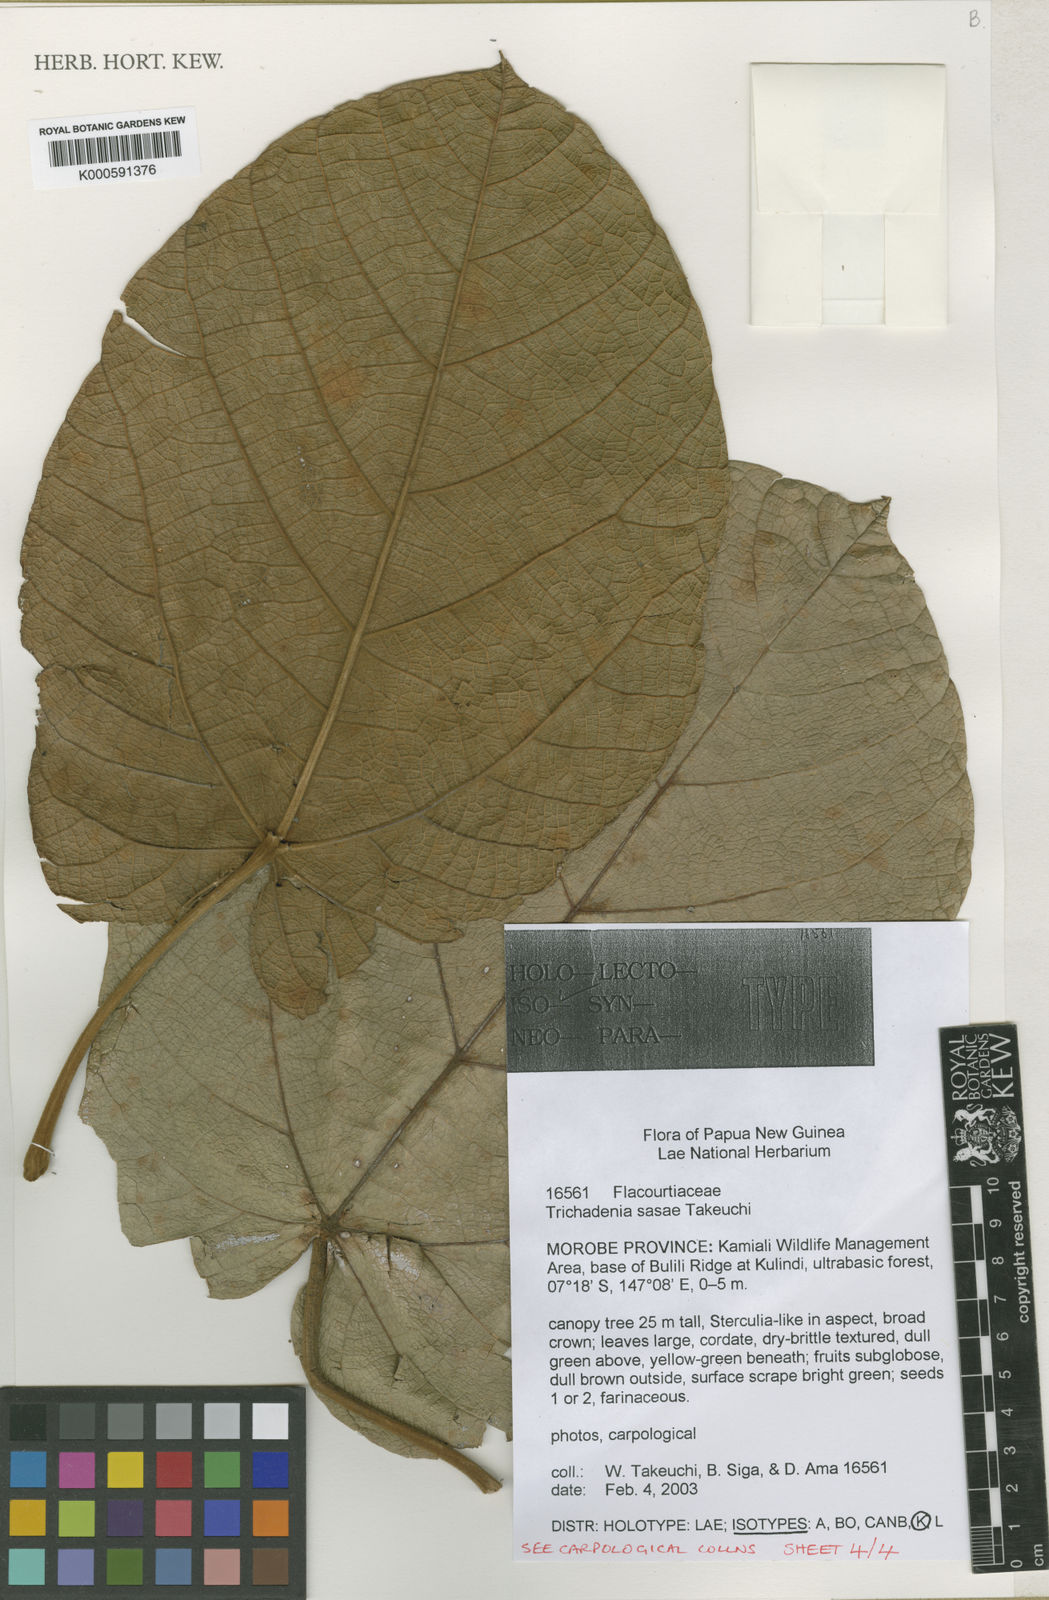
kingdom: Plantae
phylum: Tracheophyta
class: Magnoliopsida
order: Malpighiales
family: Achariaceae
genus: Trichadenia
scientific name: Trichadenia sasae
